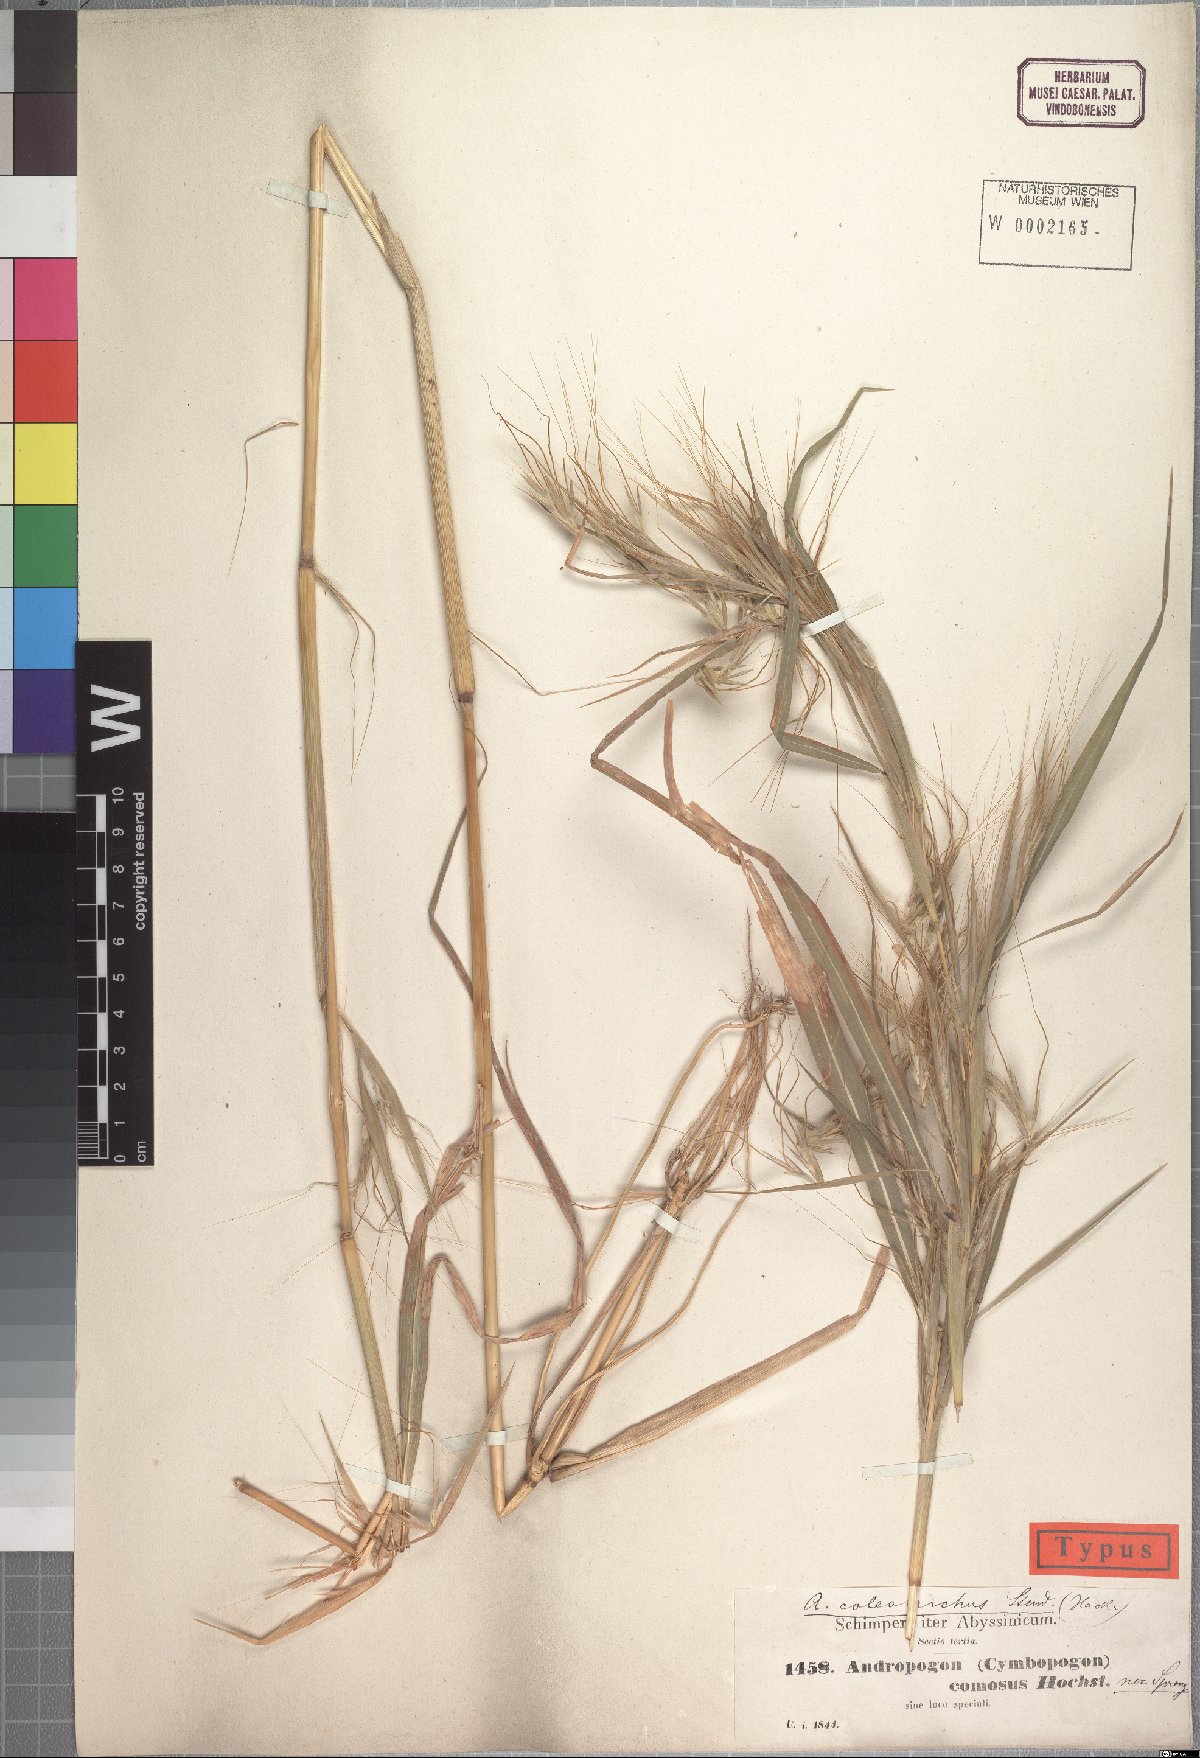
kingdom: Plantae
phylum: Tracheophyta
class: Liliopsida
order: Poales
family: Poaceae
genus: Hyparrhenia
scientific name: Hyparrhenia coleotricha
